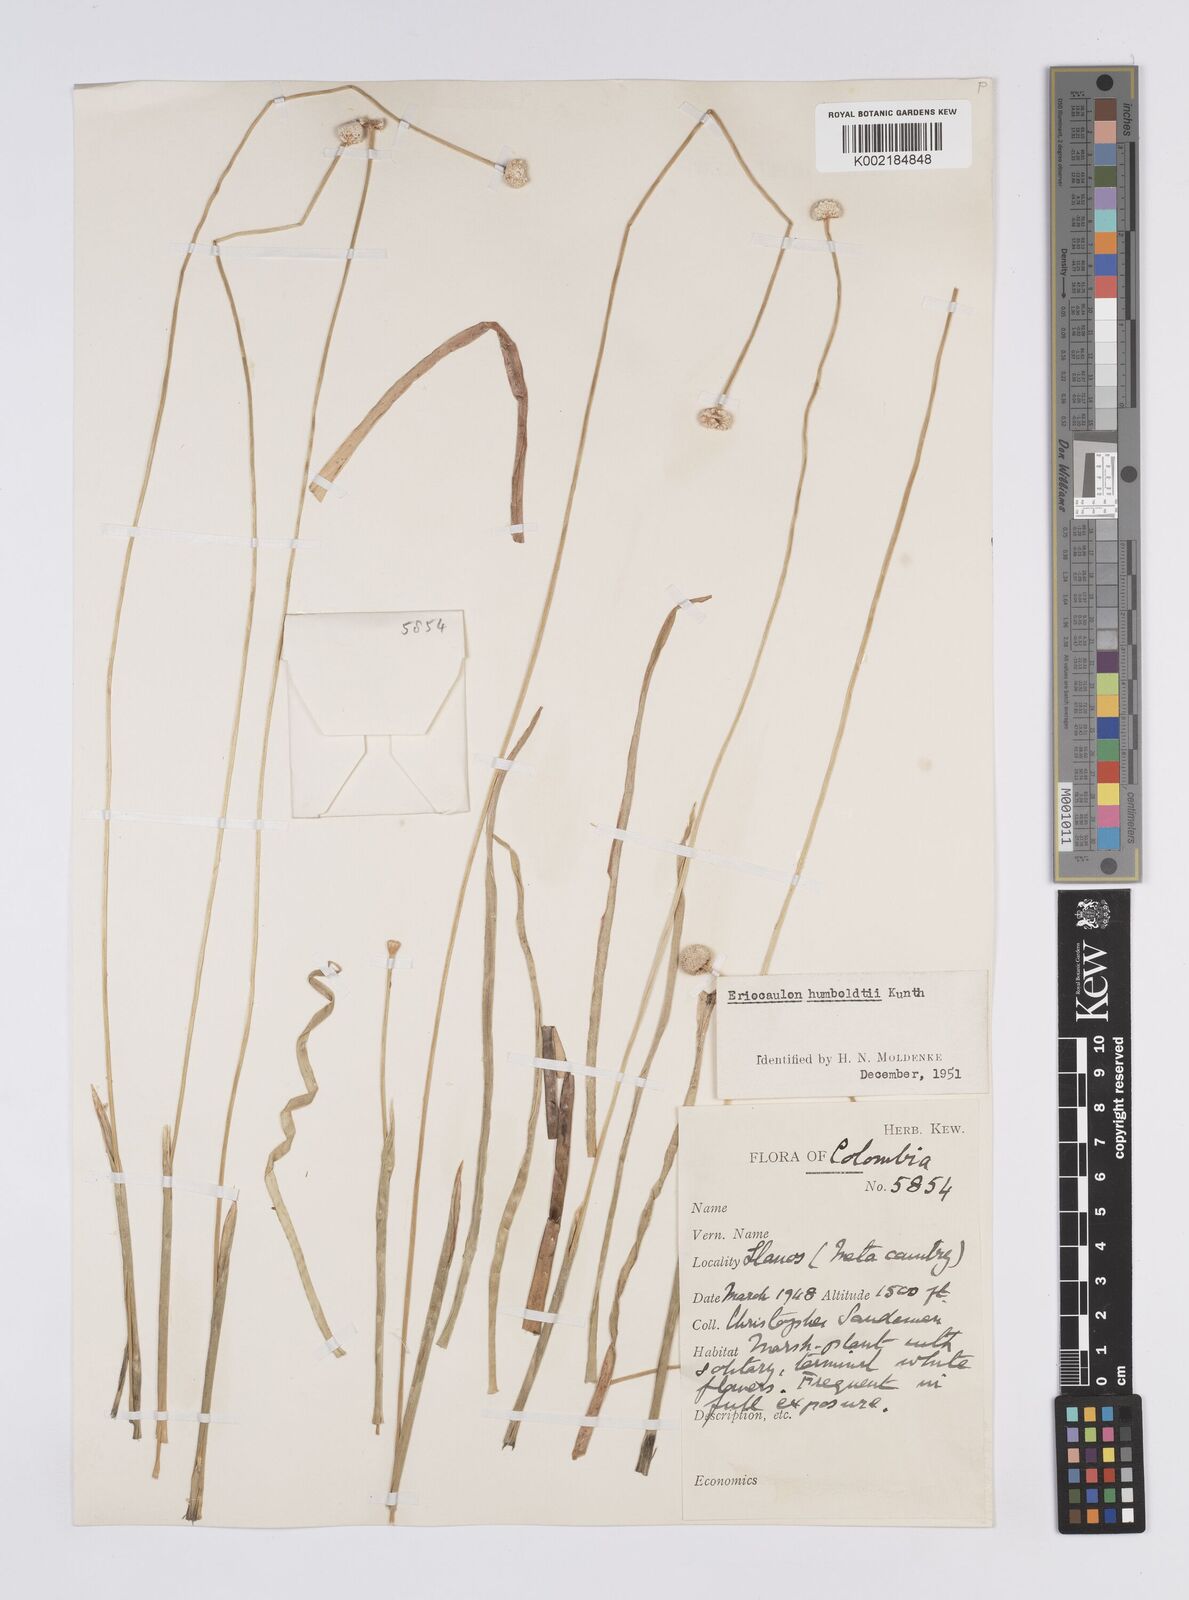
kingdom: Plantae
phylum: Tracheophyta
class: Liliopsida
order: Poales
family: Eriocaulaceae
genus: Eriocaulon
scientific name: Eriocaulon humboldtii
